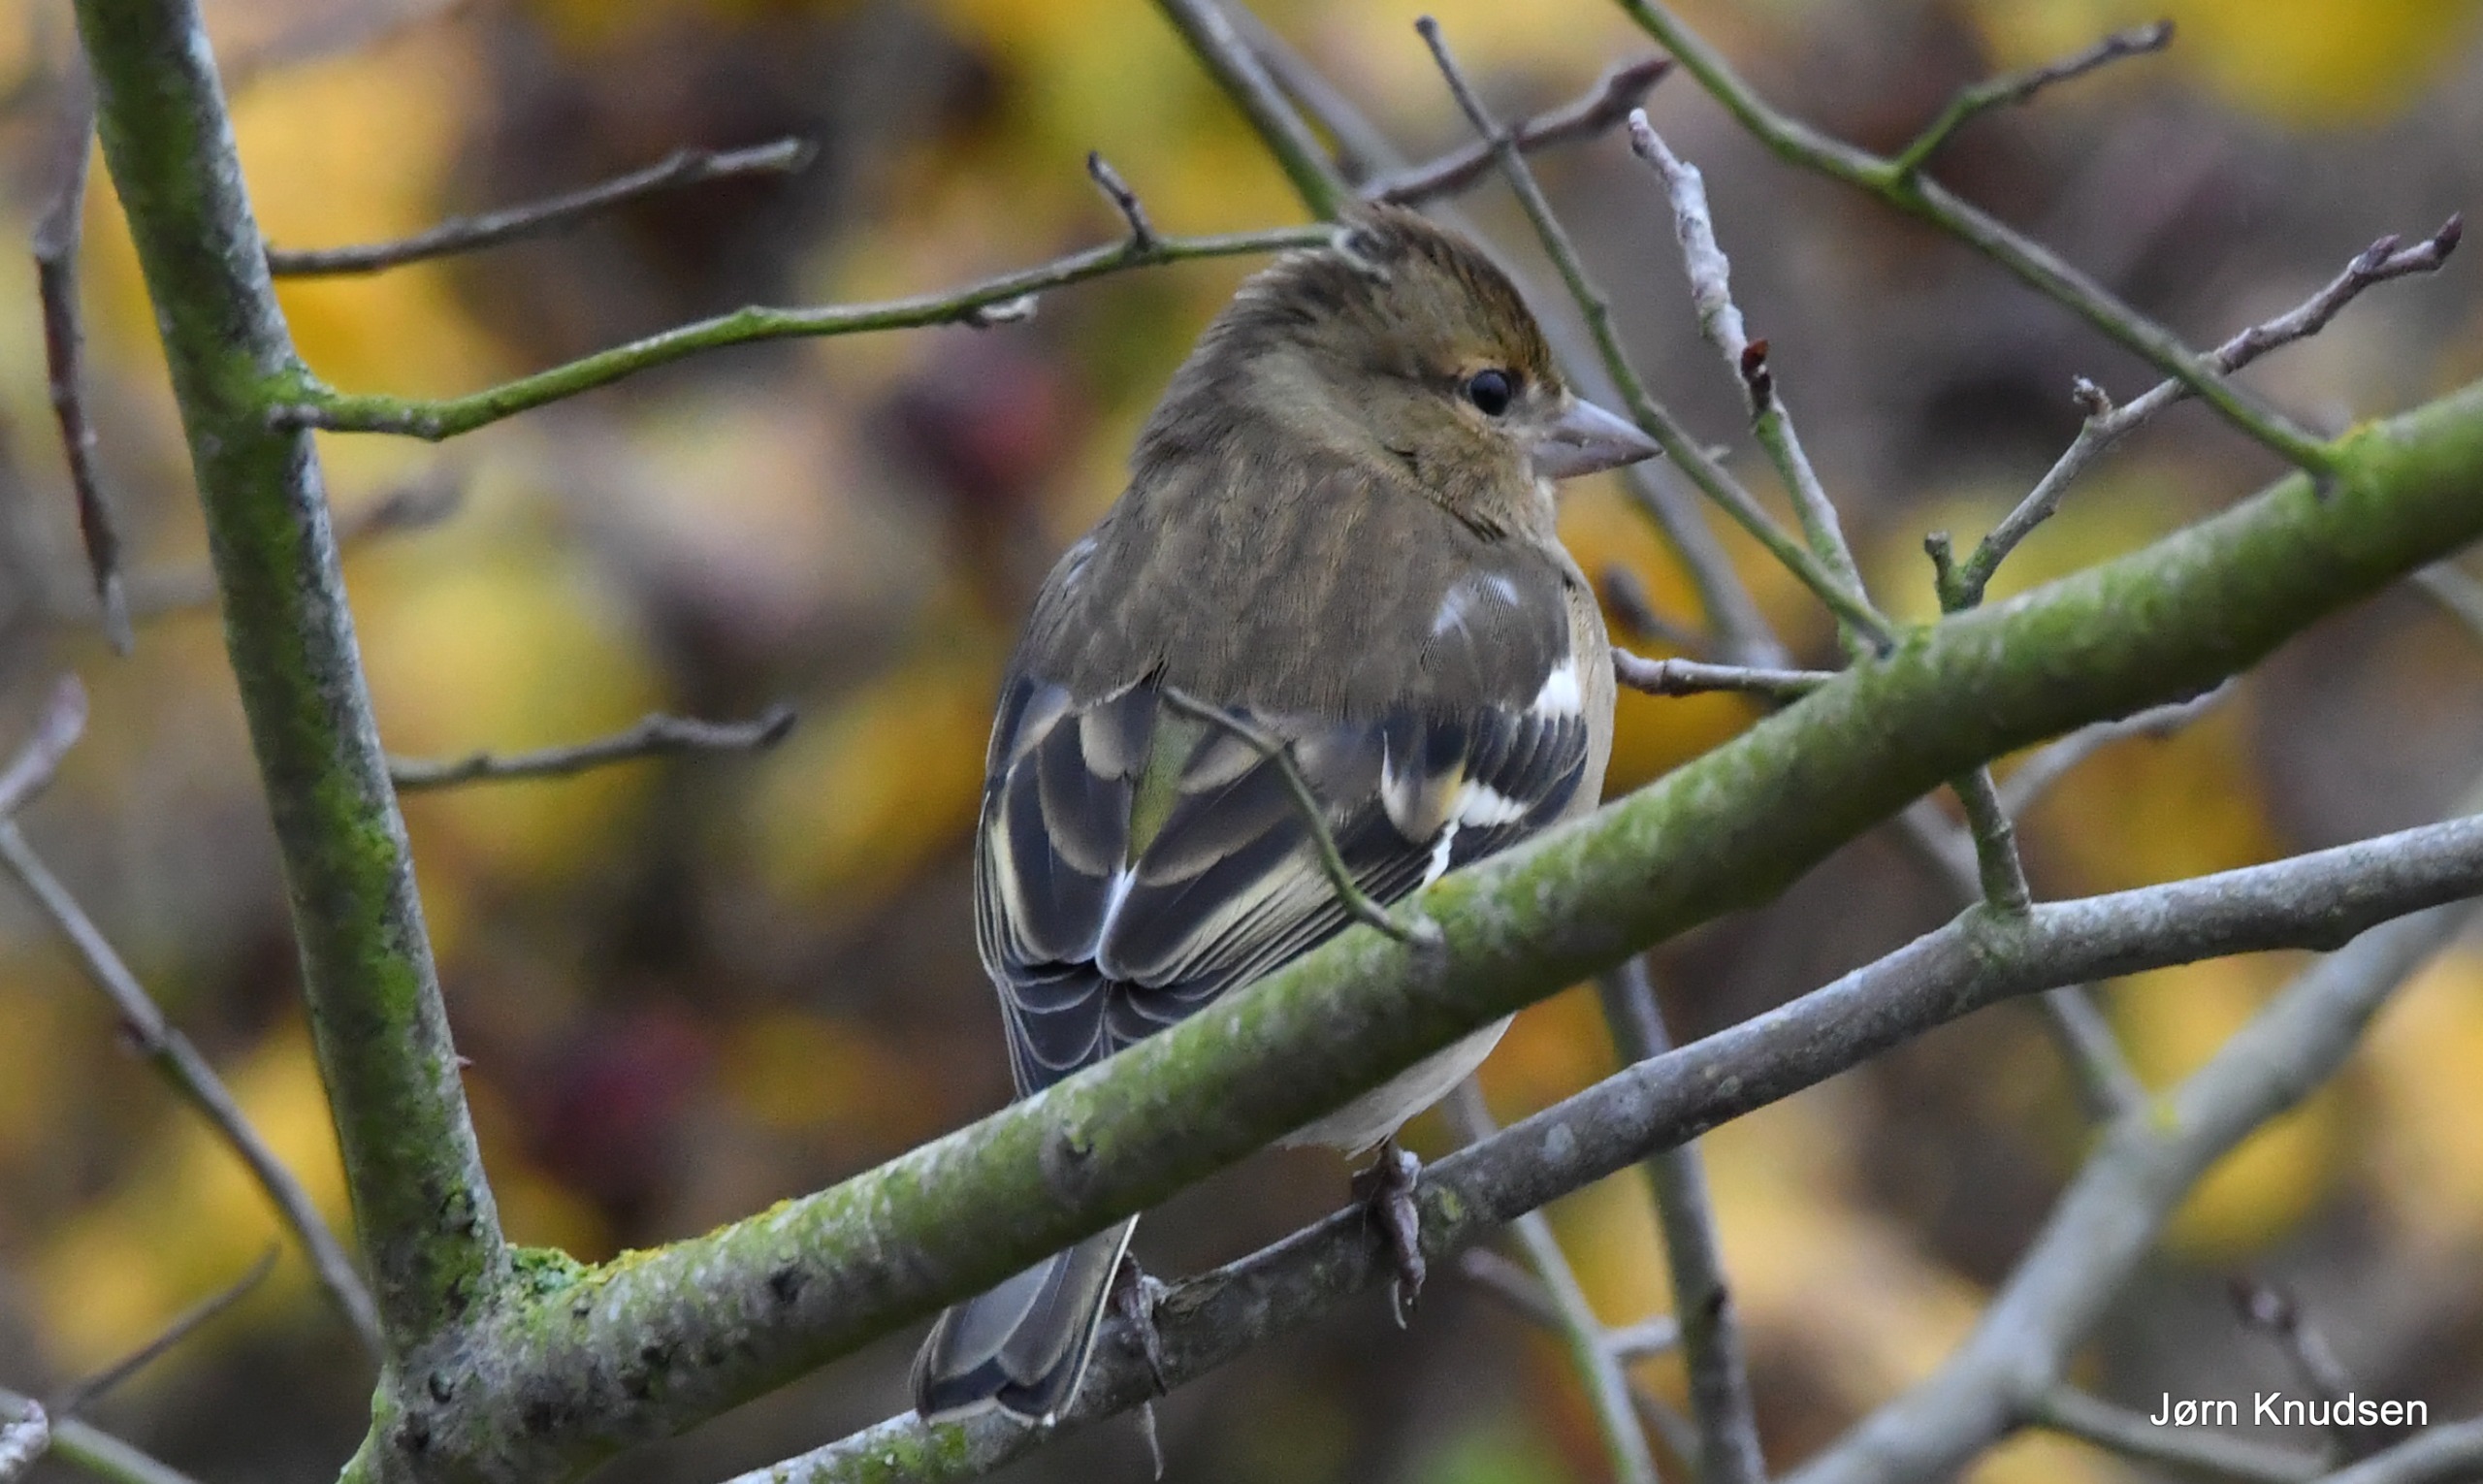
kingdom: Animalia
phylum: Chordata
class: Aves
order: Passeriformes
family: Fringillidae
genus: Fringilla
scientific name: Fringilla coelebs
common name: Bogfinke
